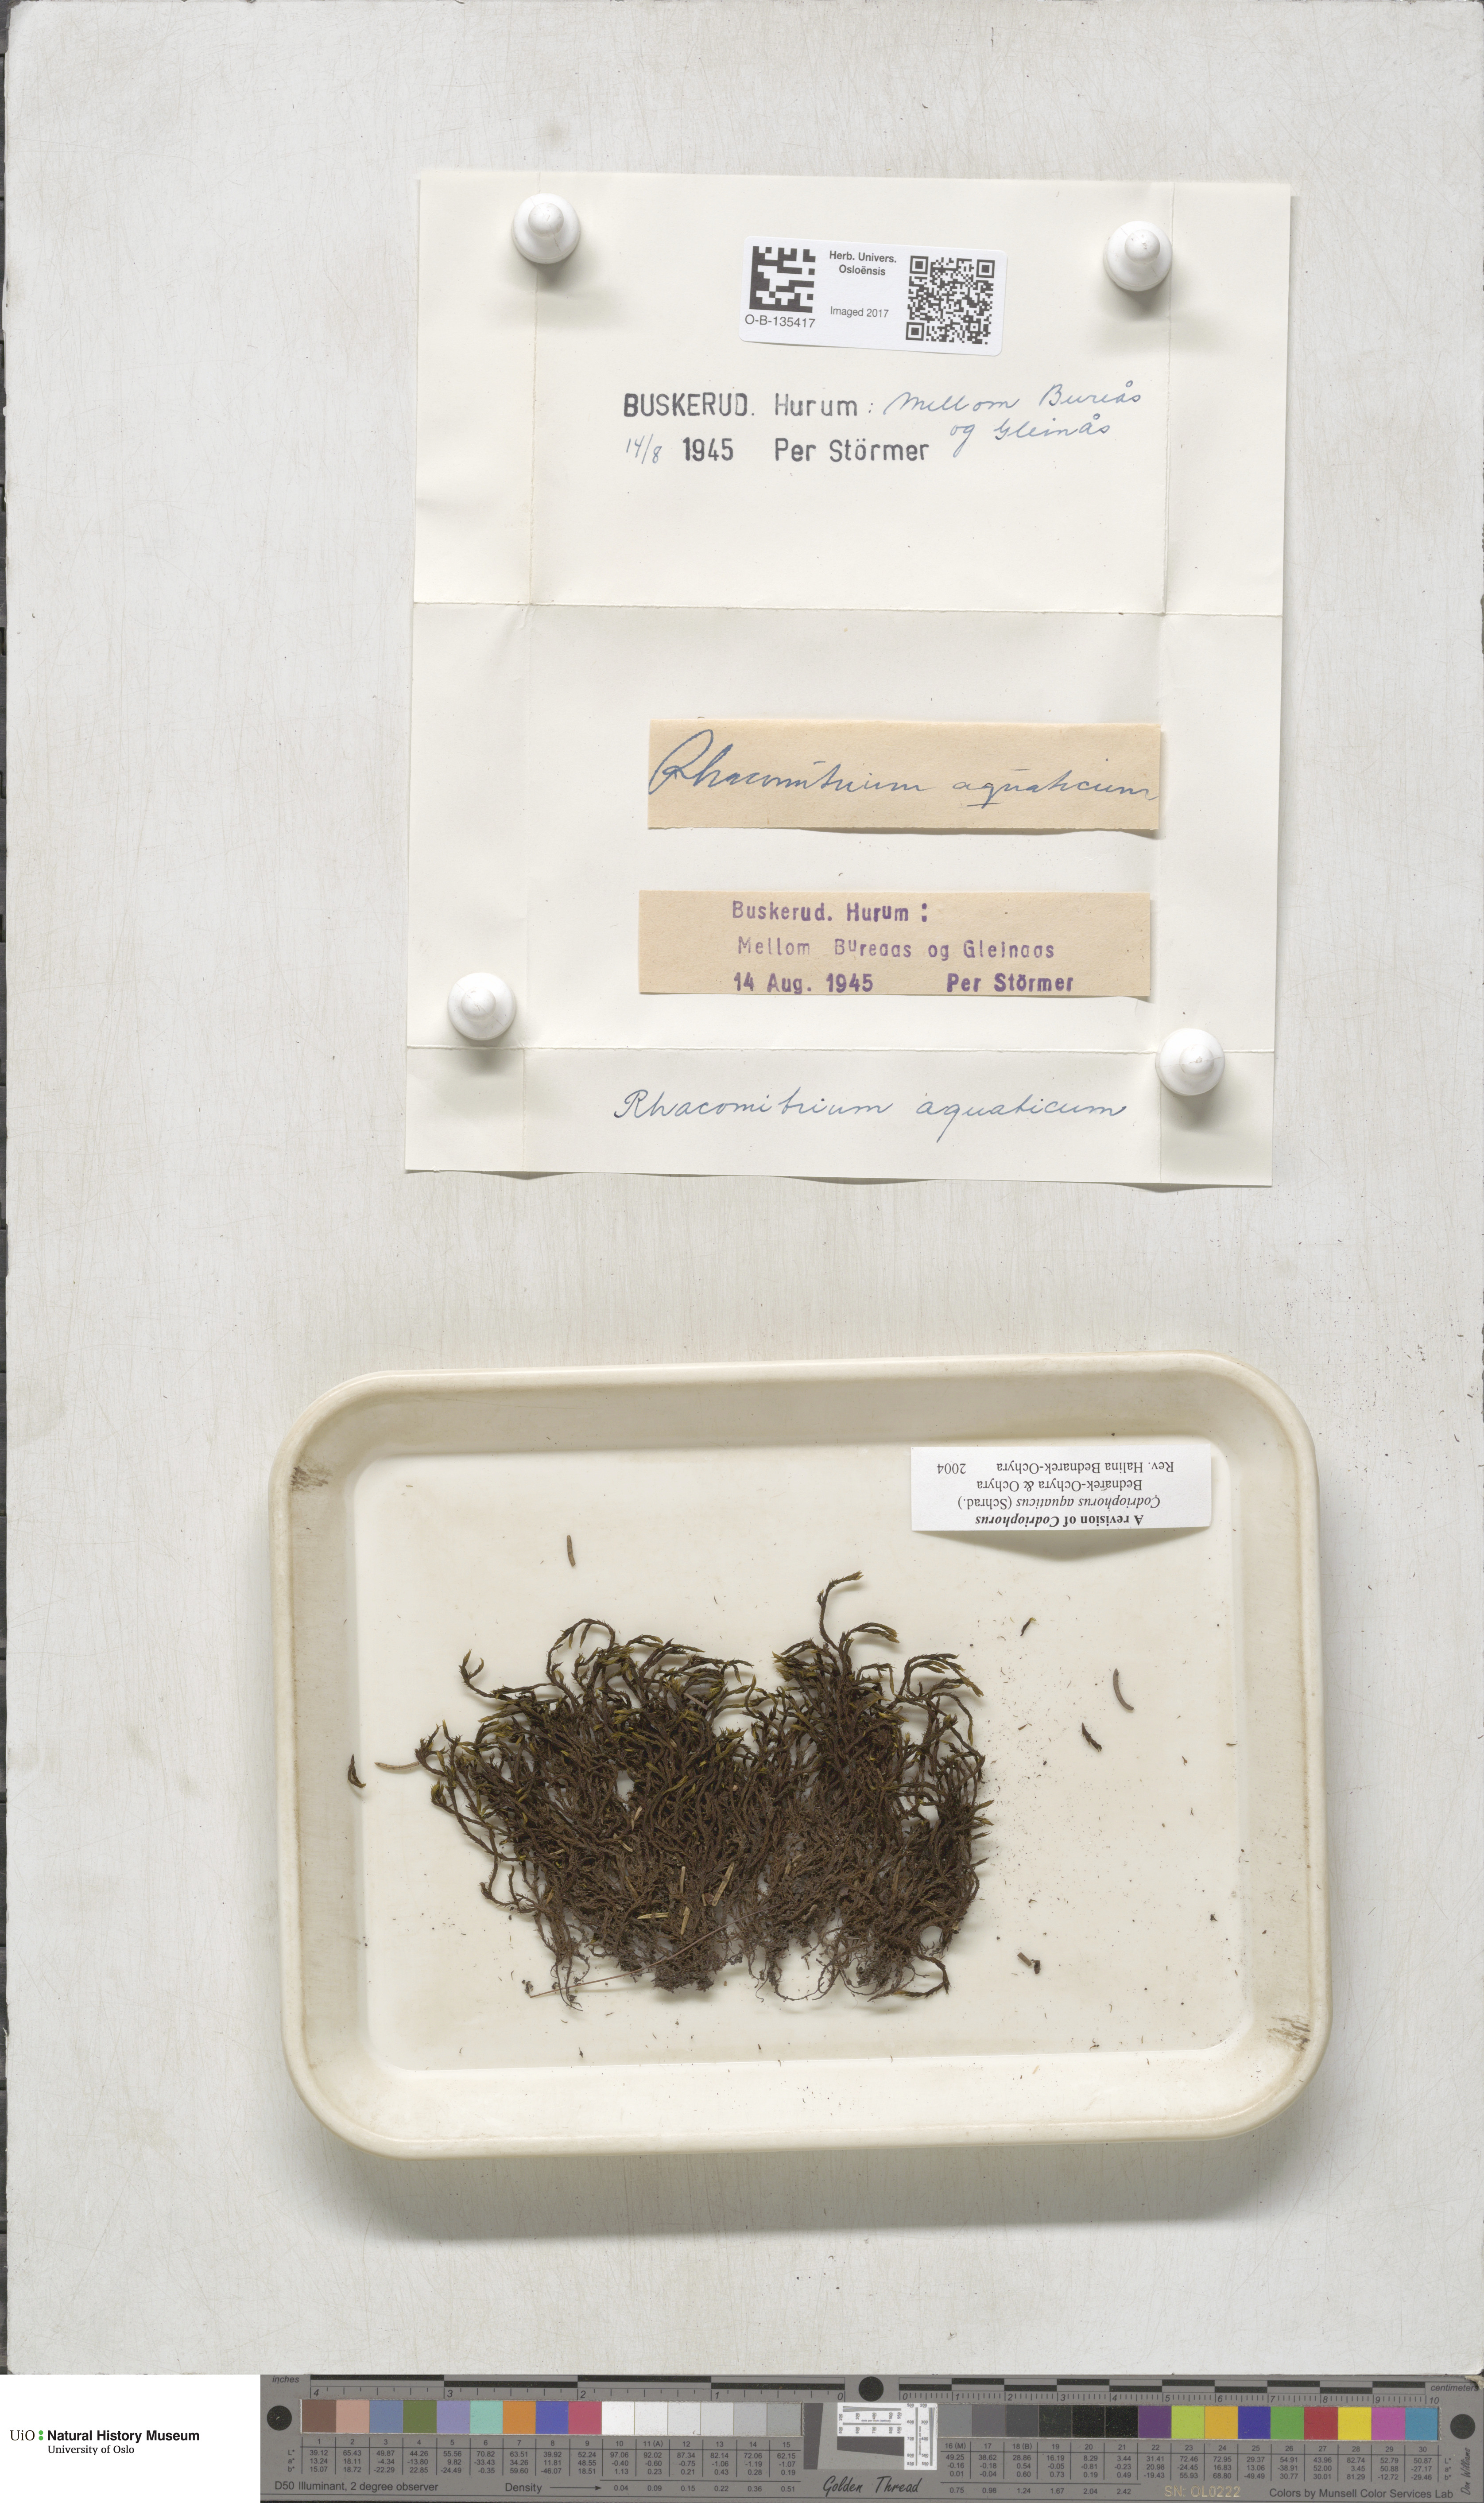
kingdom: Plantae
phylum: Bryophyta
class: Bryopsida
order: Grimmiales
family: Grimmiaceae
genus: Codriophorus
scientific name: Codriophorus aquaticus
